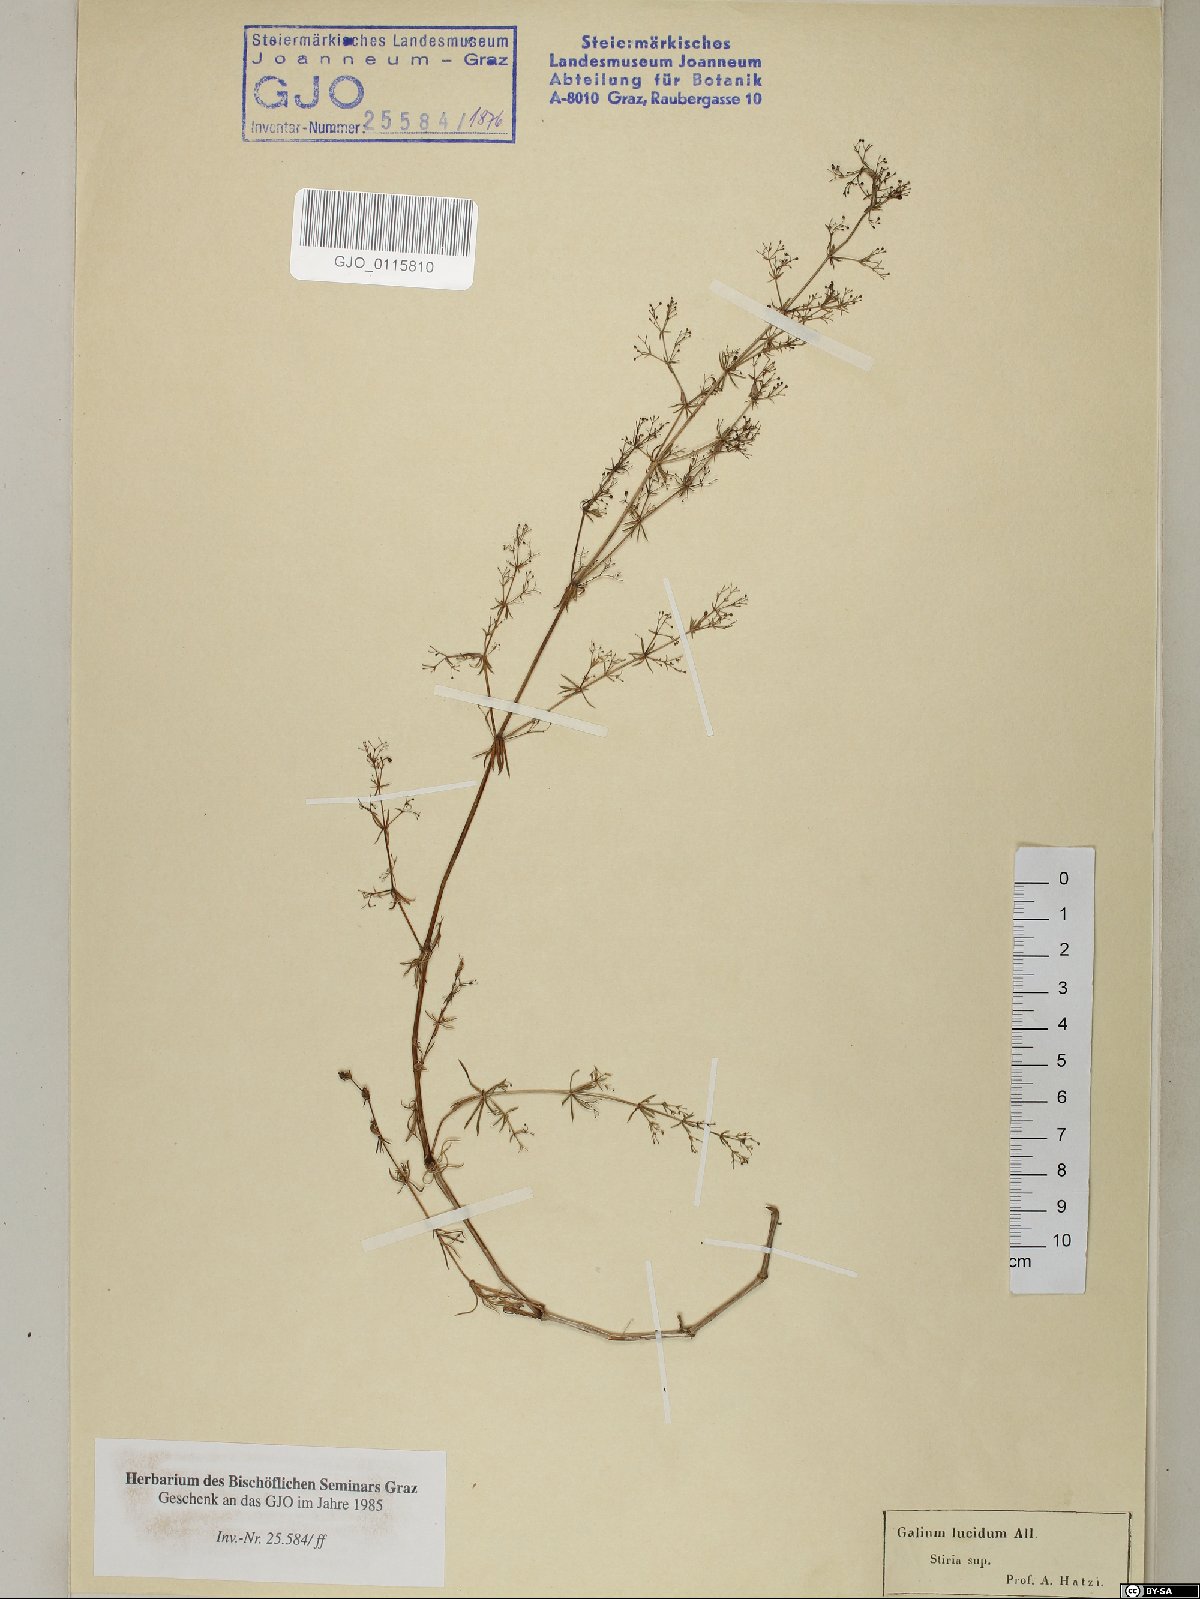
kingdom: Plantae
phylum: Tracheophyta
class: Magnoliopsida
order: Gentianales
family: Rubiaceae
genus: Galium
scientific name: Galium lucidum
